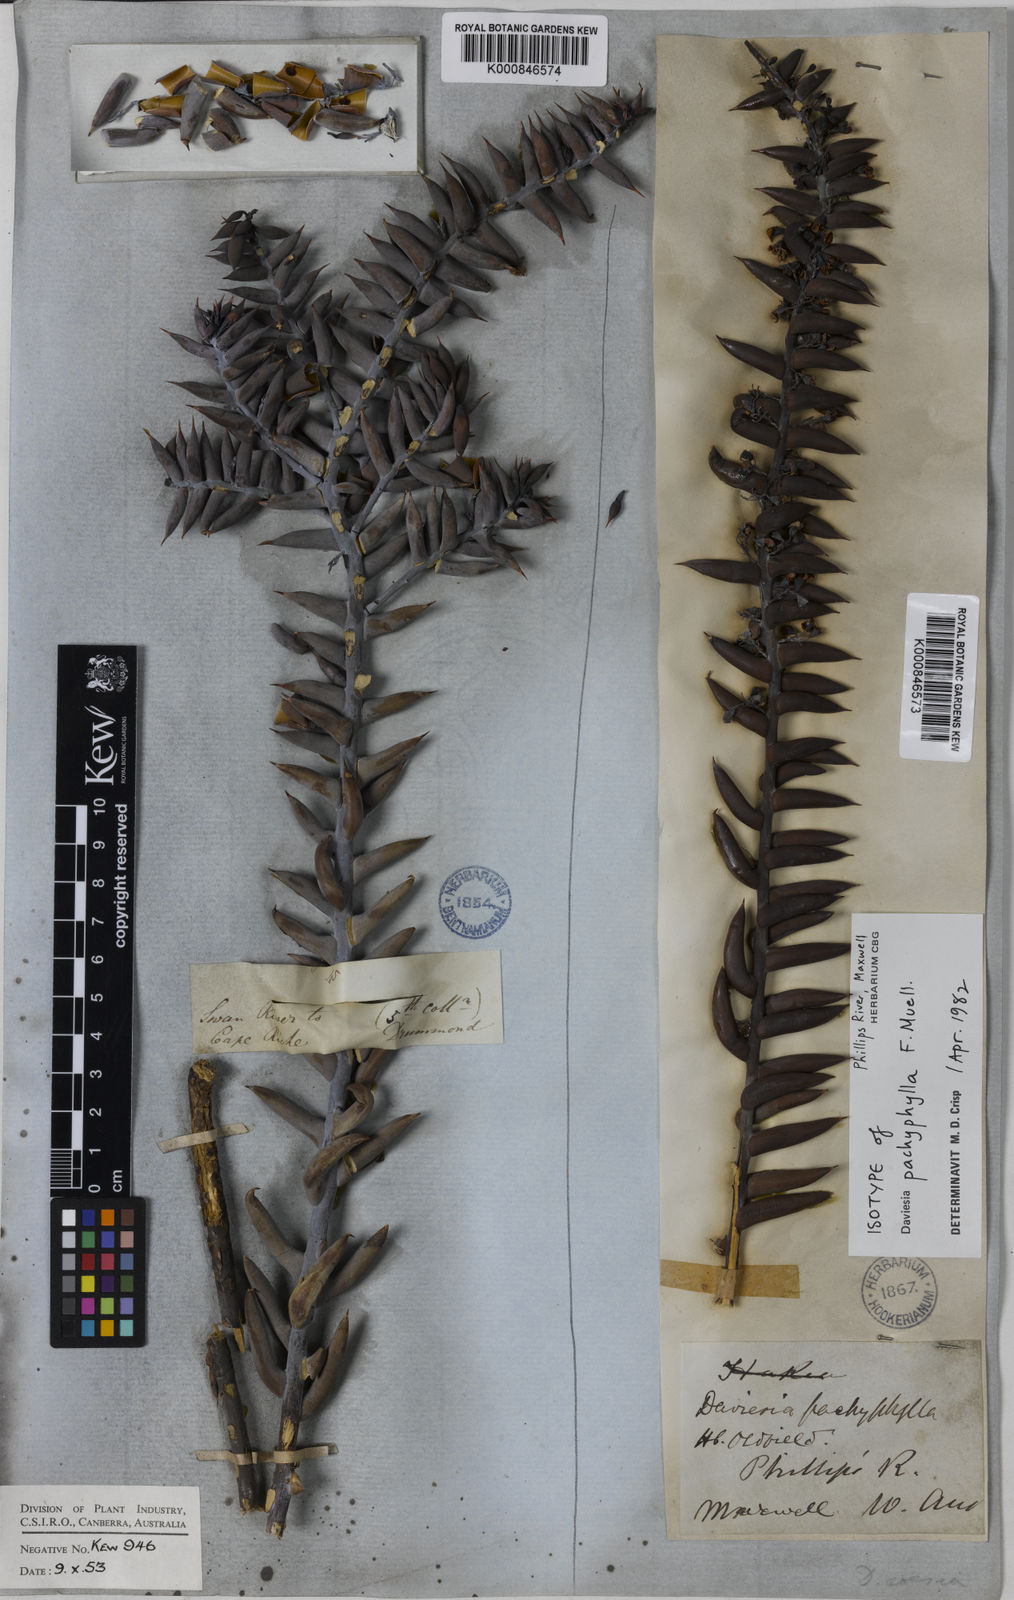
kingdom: Plantae
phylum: Tracheophyta
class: Magnoliopsida
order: Fabales
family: Fabaceae
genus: Daviesia
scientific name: Daviesia pachyphylla
